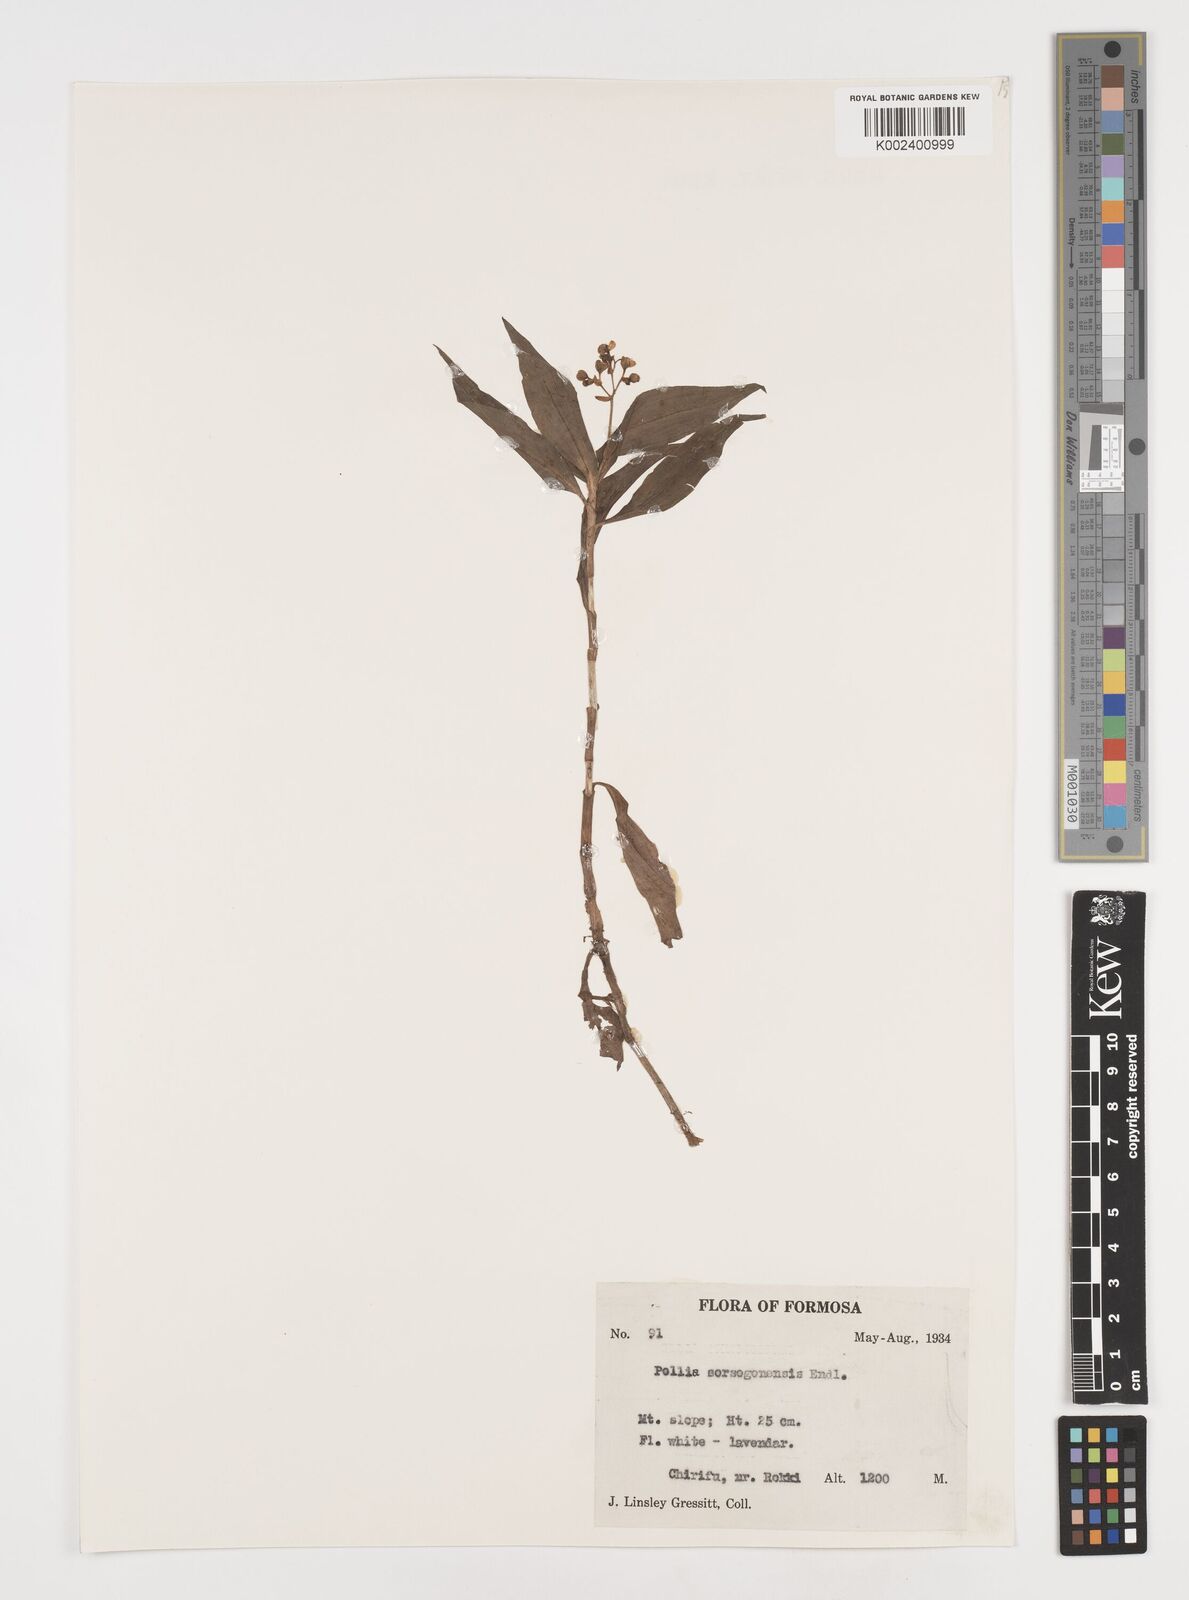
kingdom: Plantae
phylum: Tracheophyta
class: Liliopsida
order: Commelinales
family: Commelinaceae
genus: Pollia
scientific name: Pollia secundiflora
